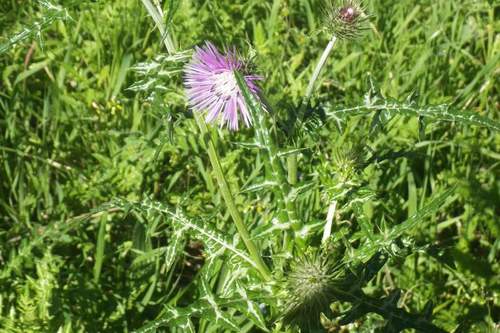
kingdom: Plantae
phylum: Tracheophyta
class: Magnoliopsida
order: Asterales
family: Asteraceae
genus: Galactites
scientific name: Galactites tomentosa
